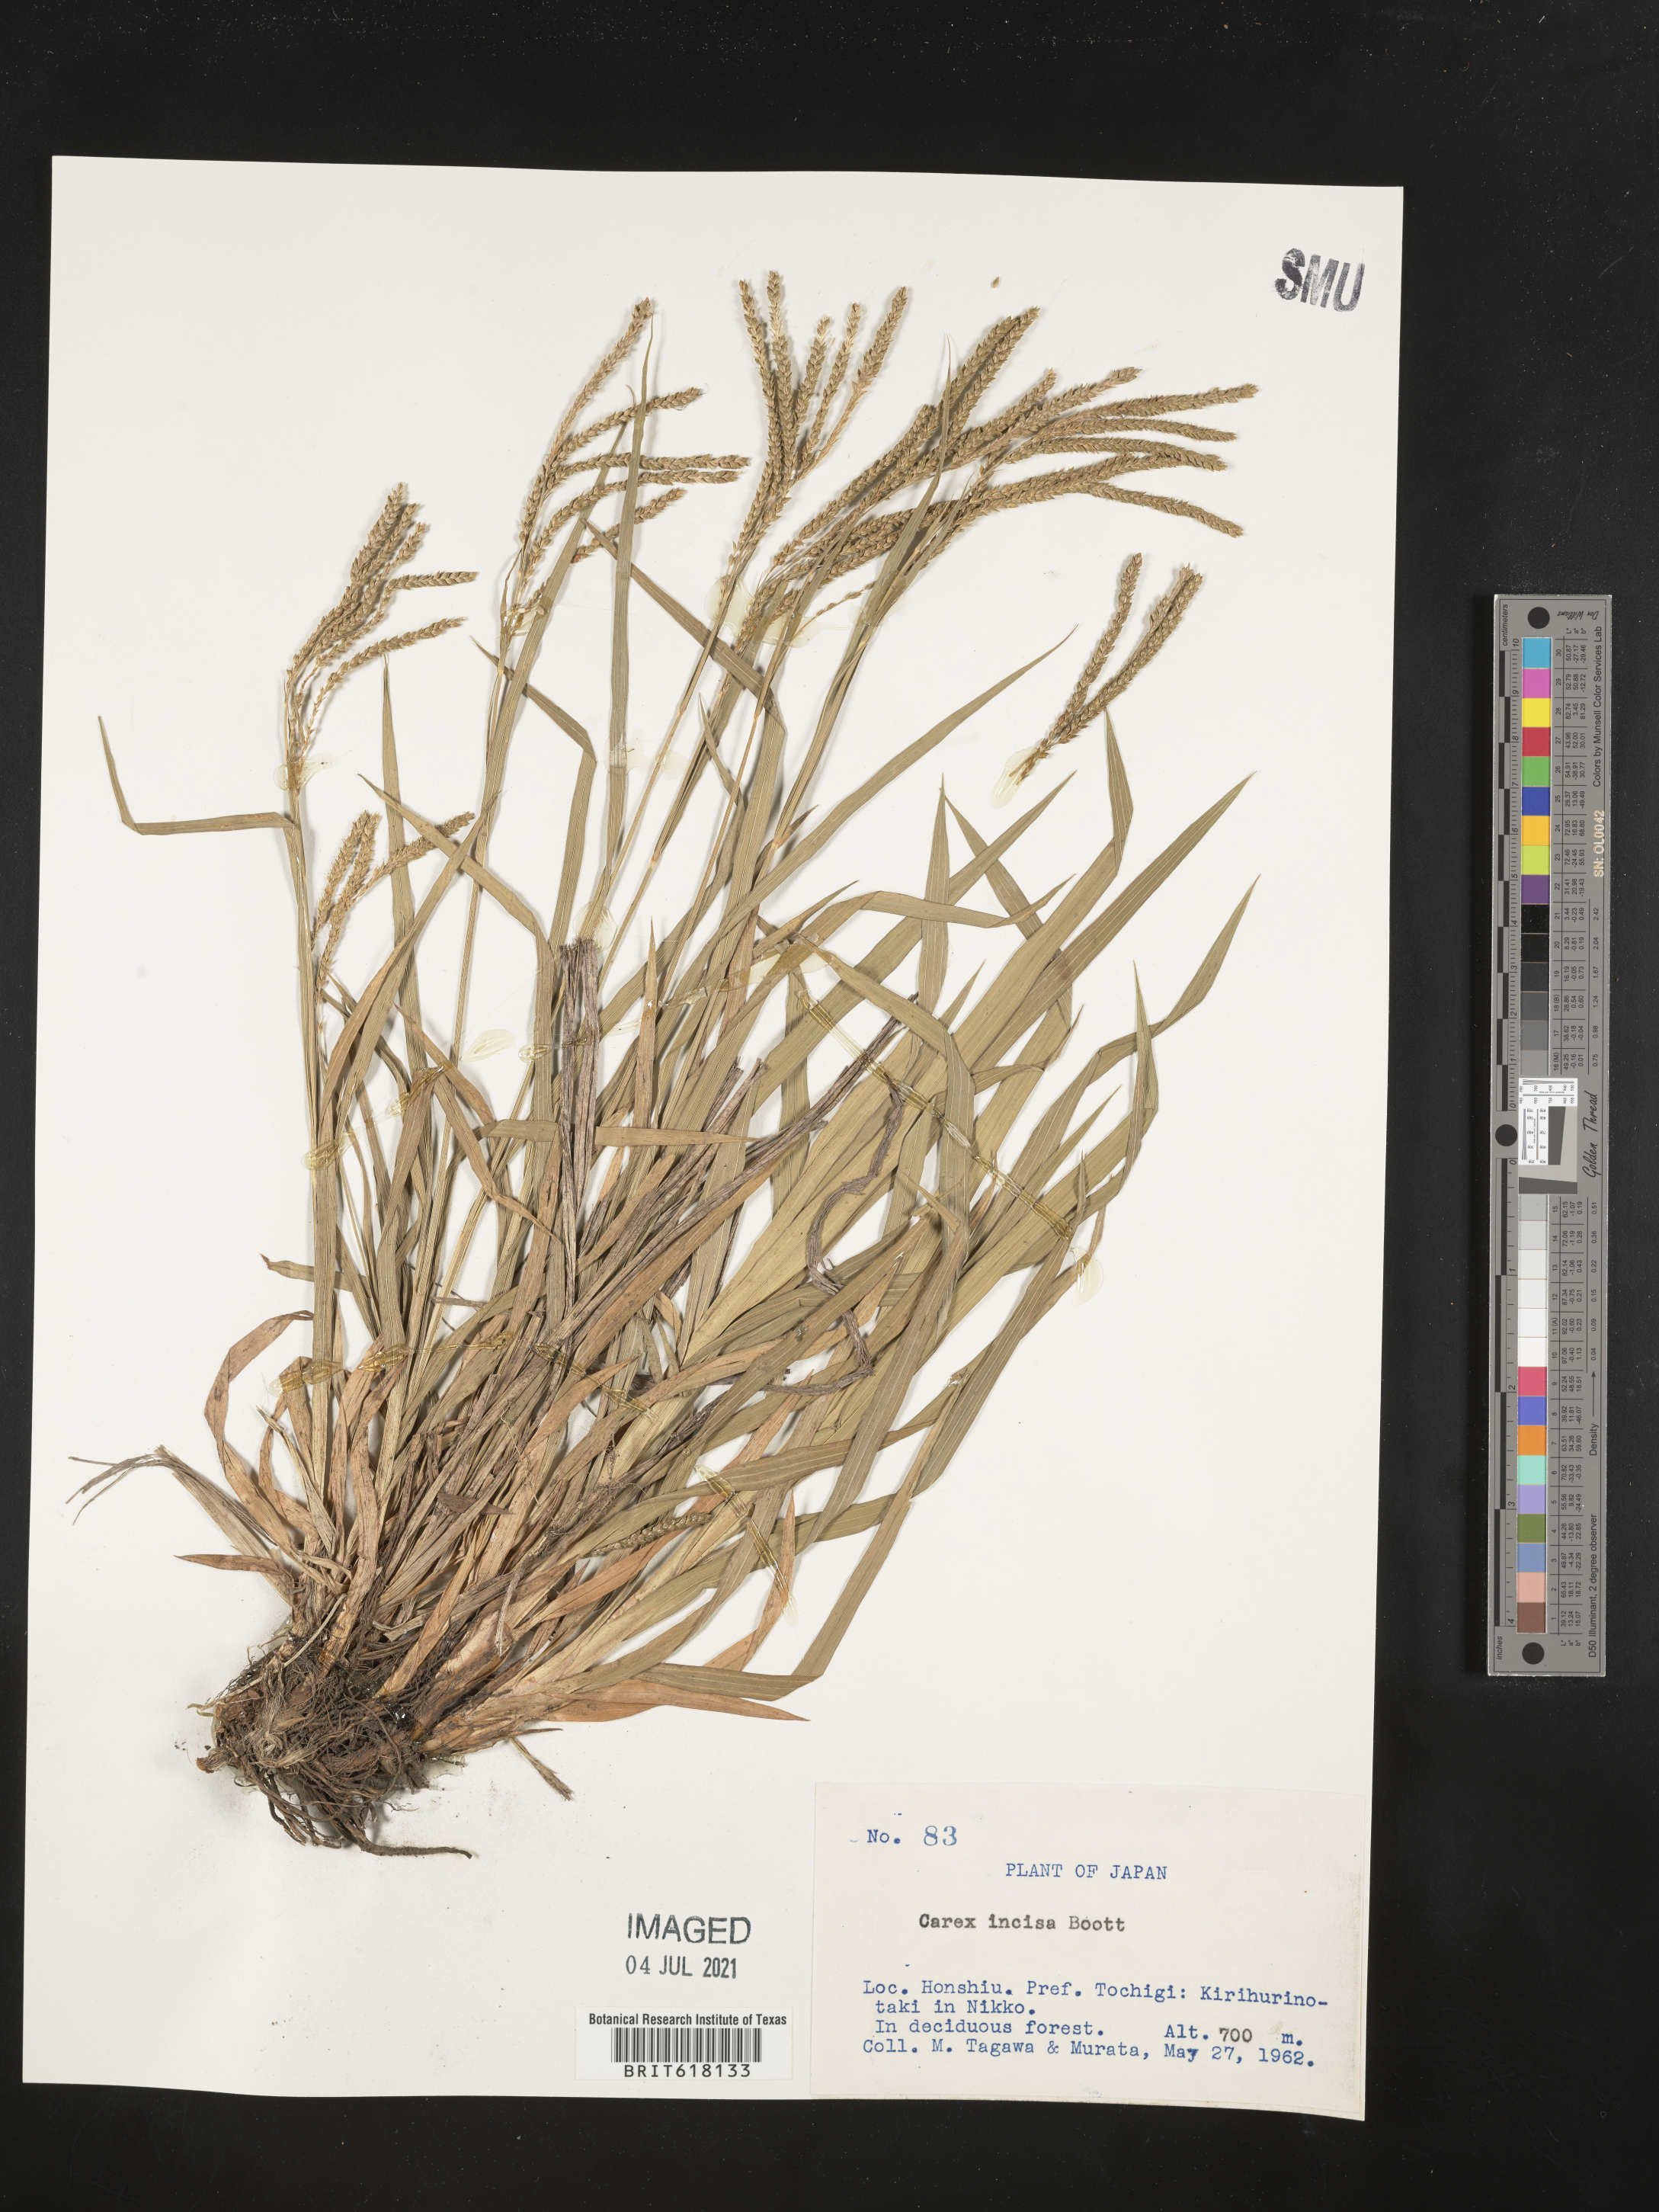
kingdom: Plantae
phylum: Tracheophyta
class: Liliopsida
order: Poales
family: Cyperaceae
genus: Carex
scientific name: Carex incisa
